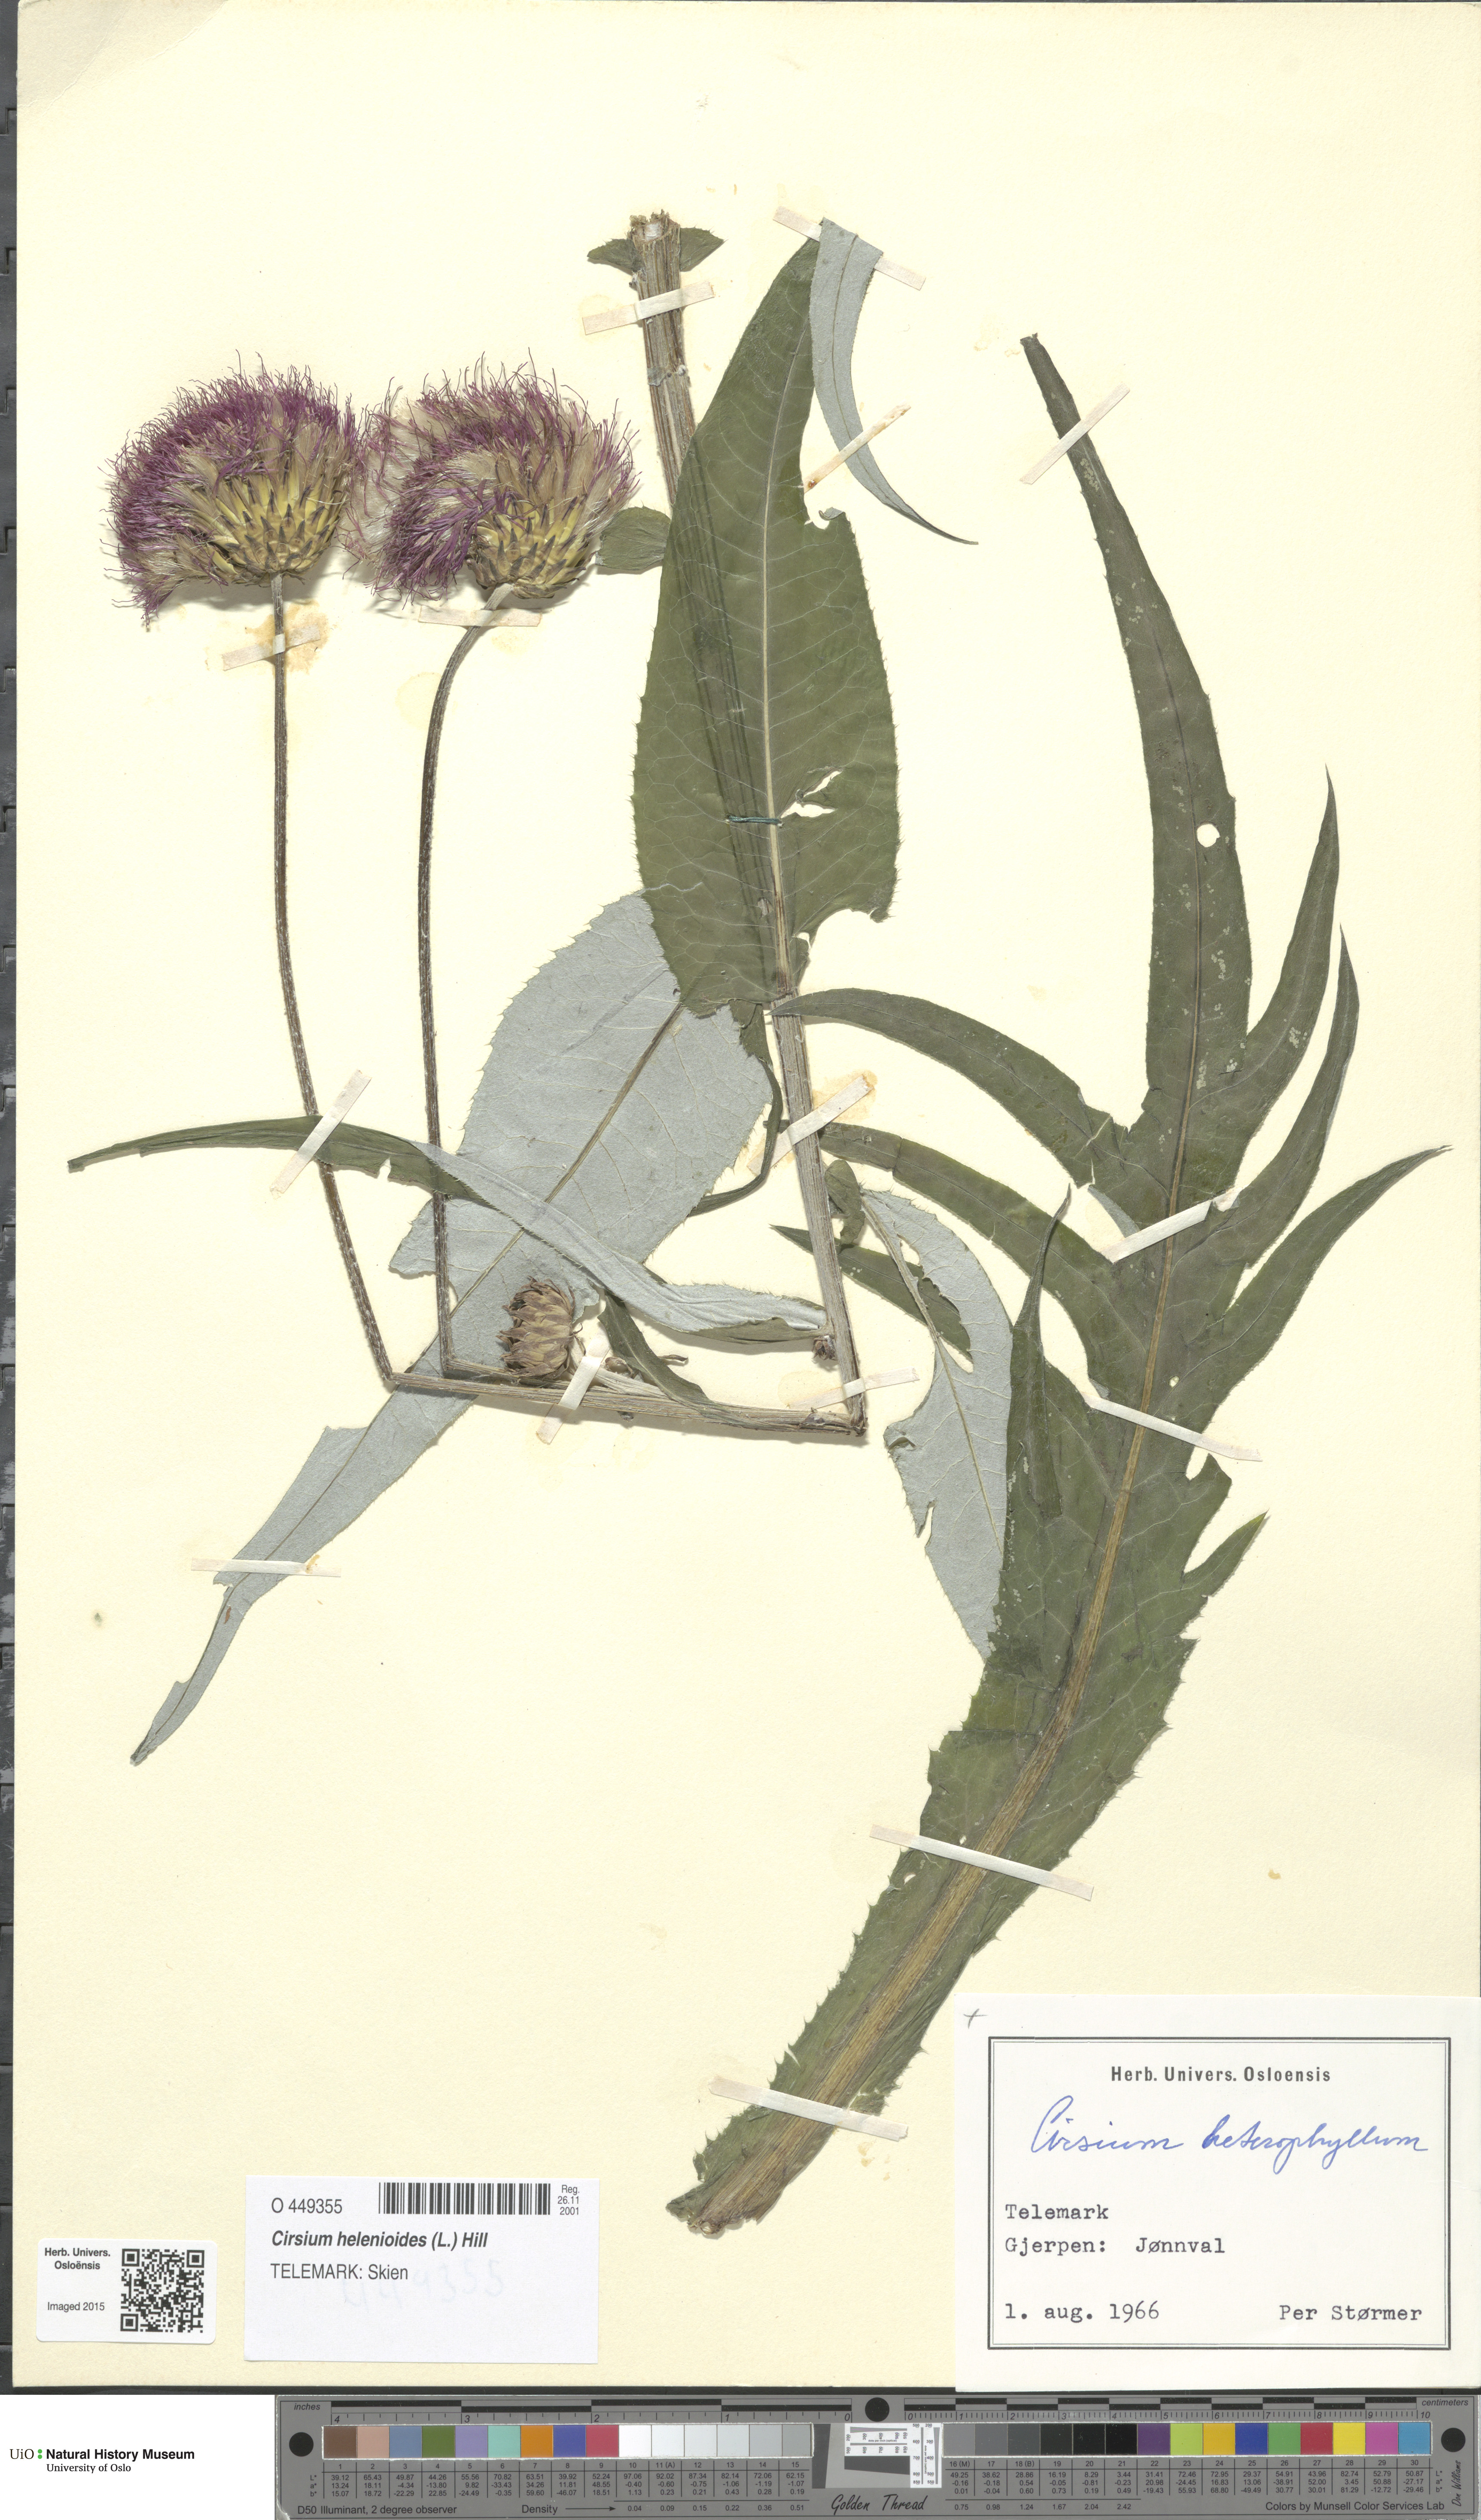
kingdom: Plantae
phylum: Tracheophyta
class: Magnoliopsida
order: Asterales
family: Asteraceae
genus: Cirsium
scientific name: Cirsium heterophyllum
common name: Melancholy thistle
